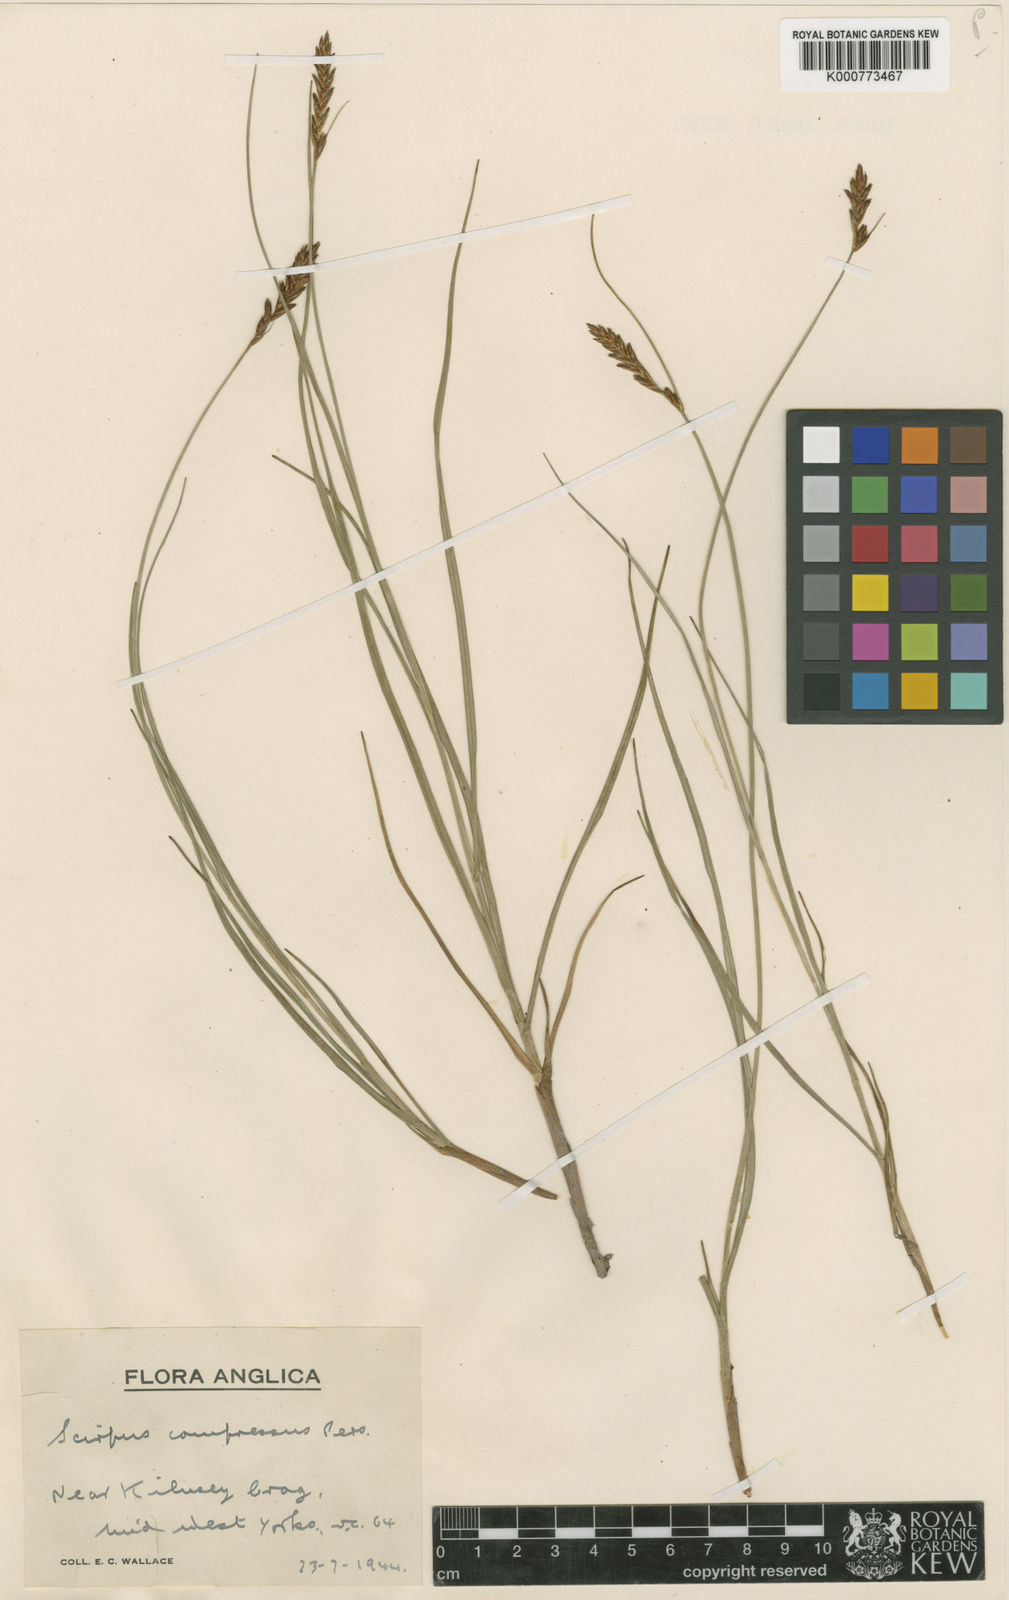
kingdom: Plantae
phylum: Tracheophyta
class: Liliopsida
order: Poales
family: Cyperaceae
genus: Blysmus
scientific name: Blysmus compressus
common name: Flat-sedge
